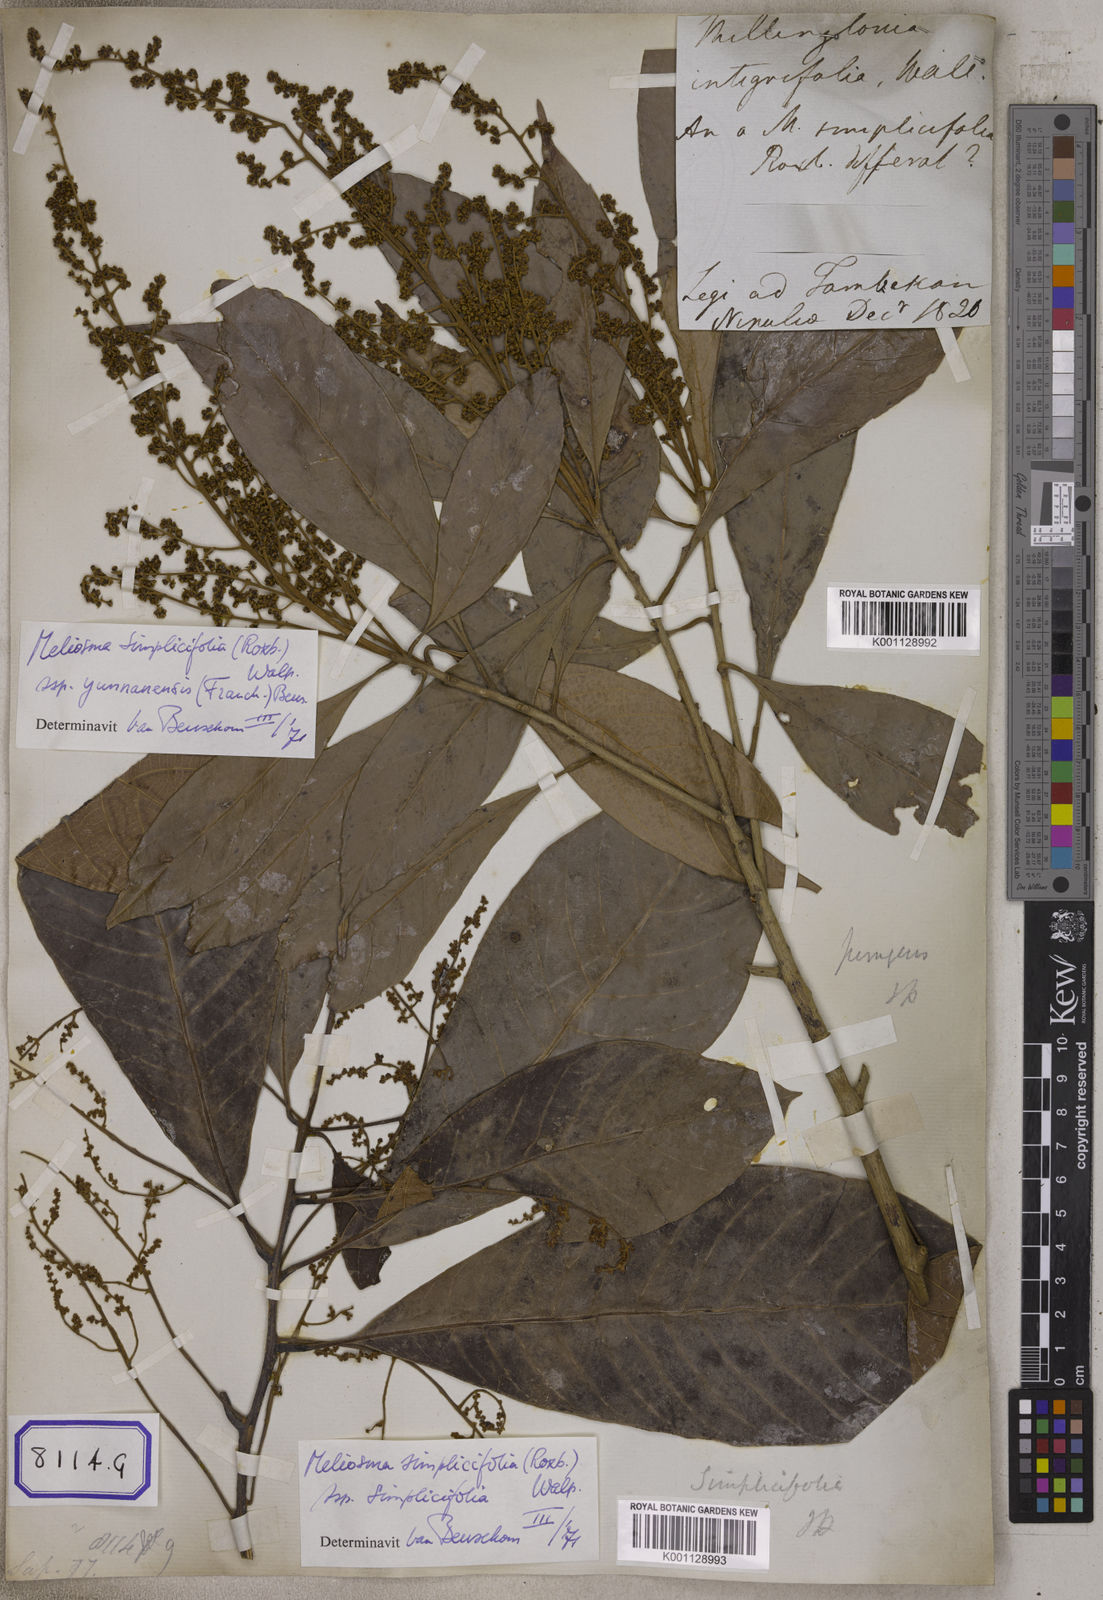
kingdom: Plantae
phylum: Tracheophyta
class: Magnoliopsida
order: Proteales
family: Sabiaceae
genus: Meliosma
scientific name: Meliosma simplicifolia
